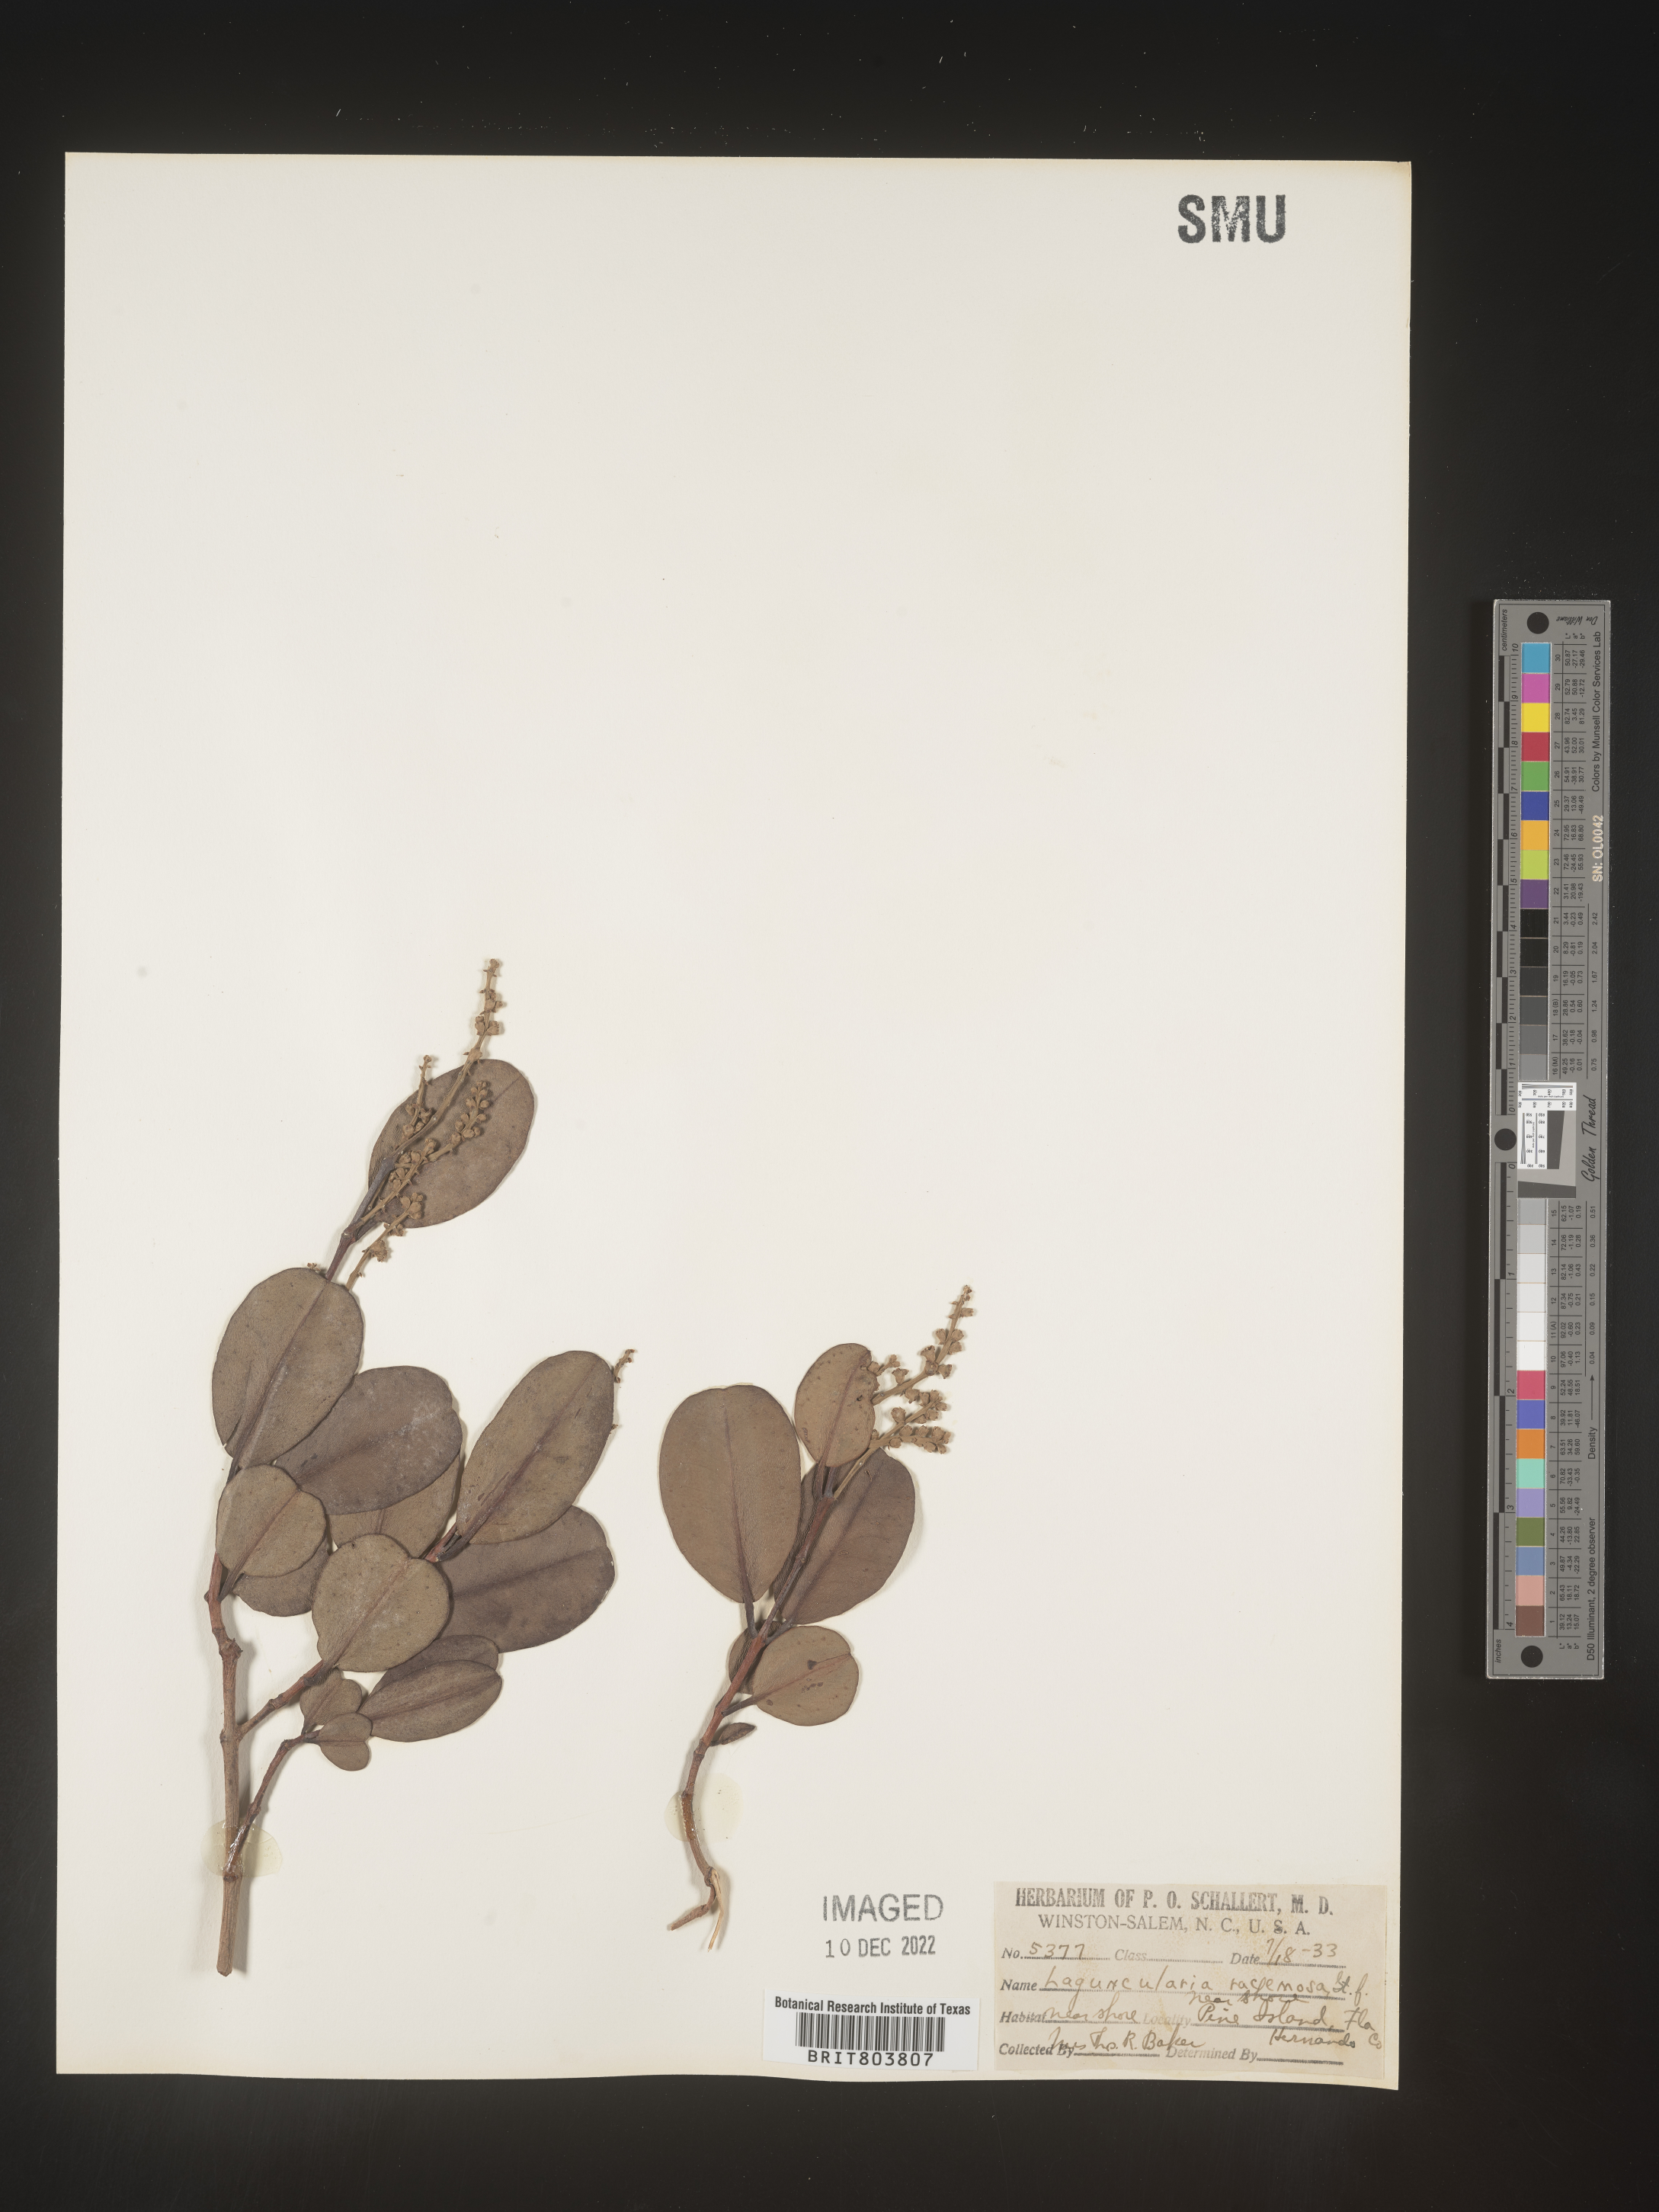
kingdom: Plantae
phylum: Tracheophyta
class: Magnoliopsida
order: Myrtales
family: Combretaceae
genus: Laguncularia
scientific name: Laguncularia
